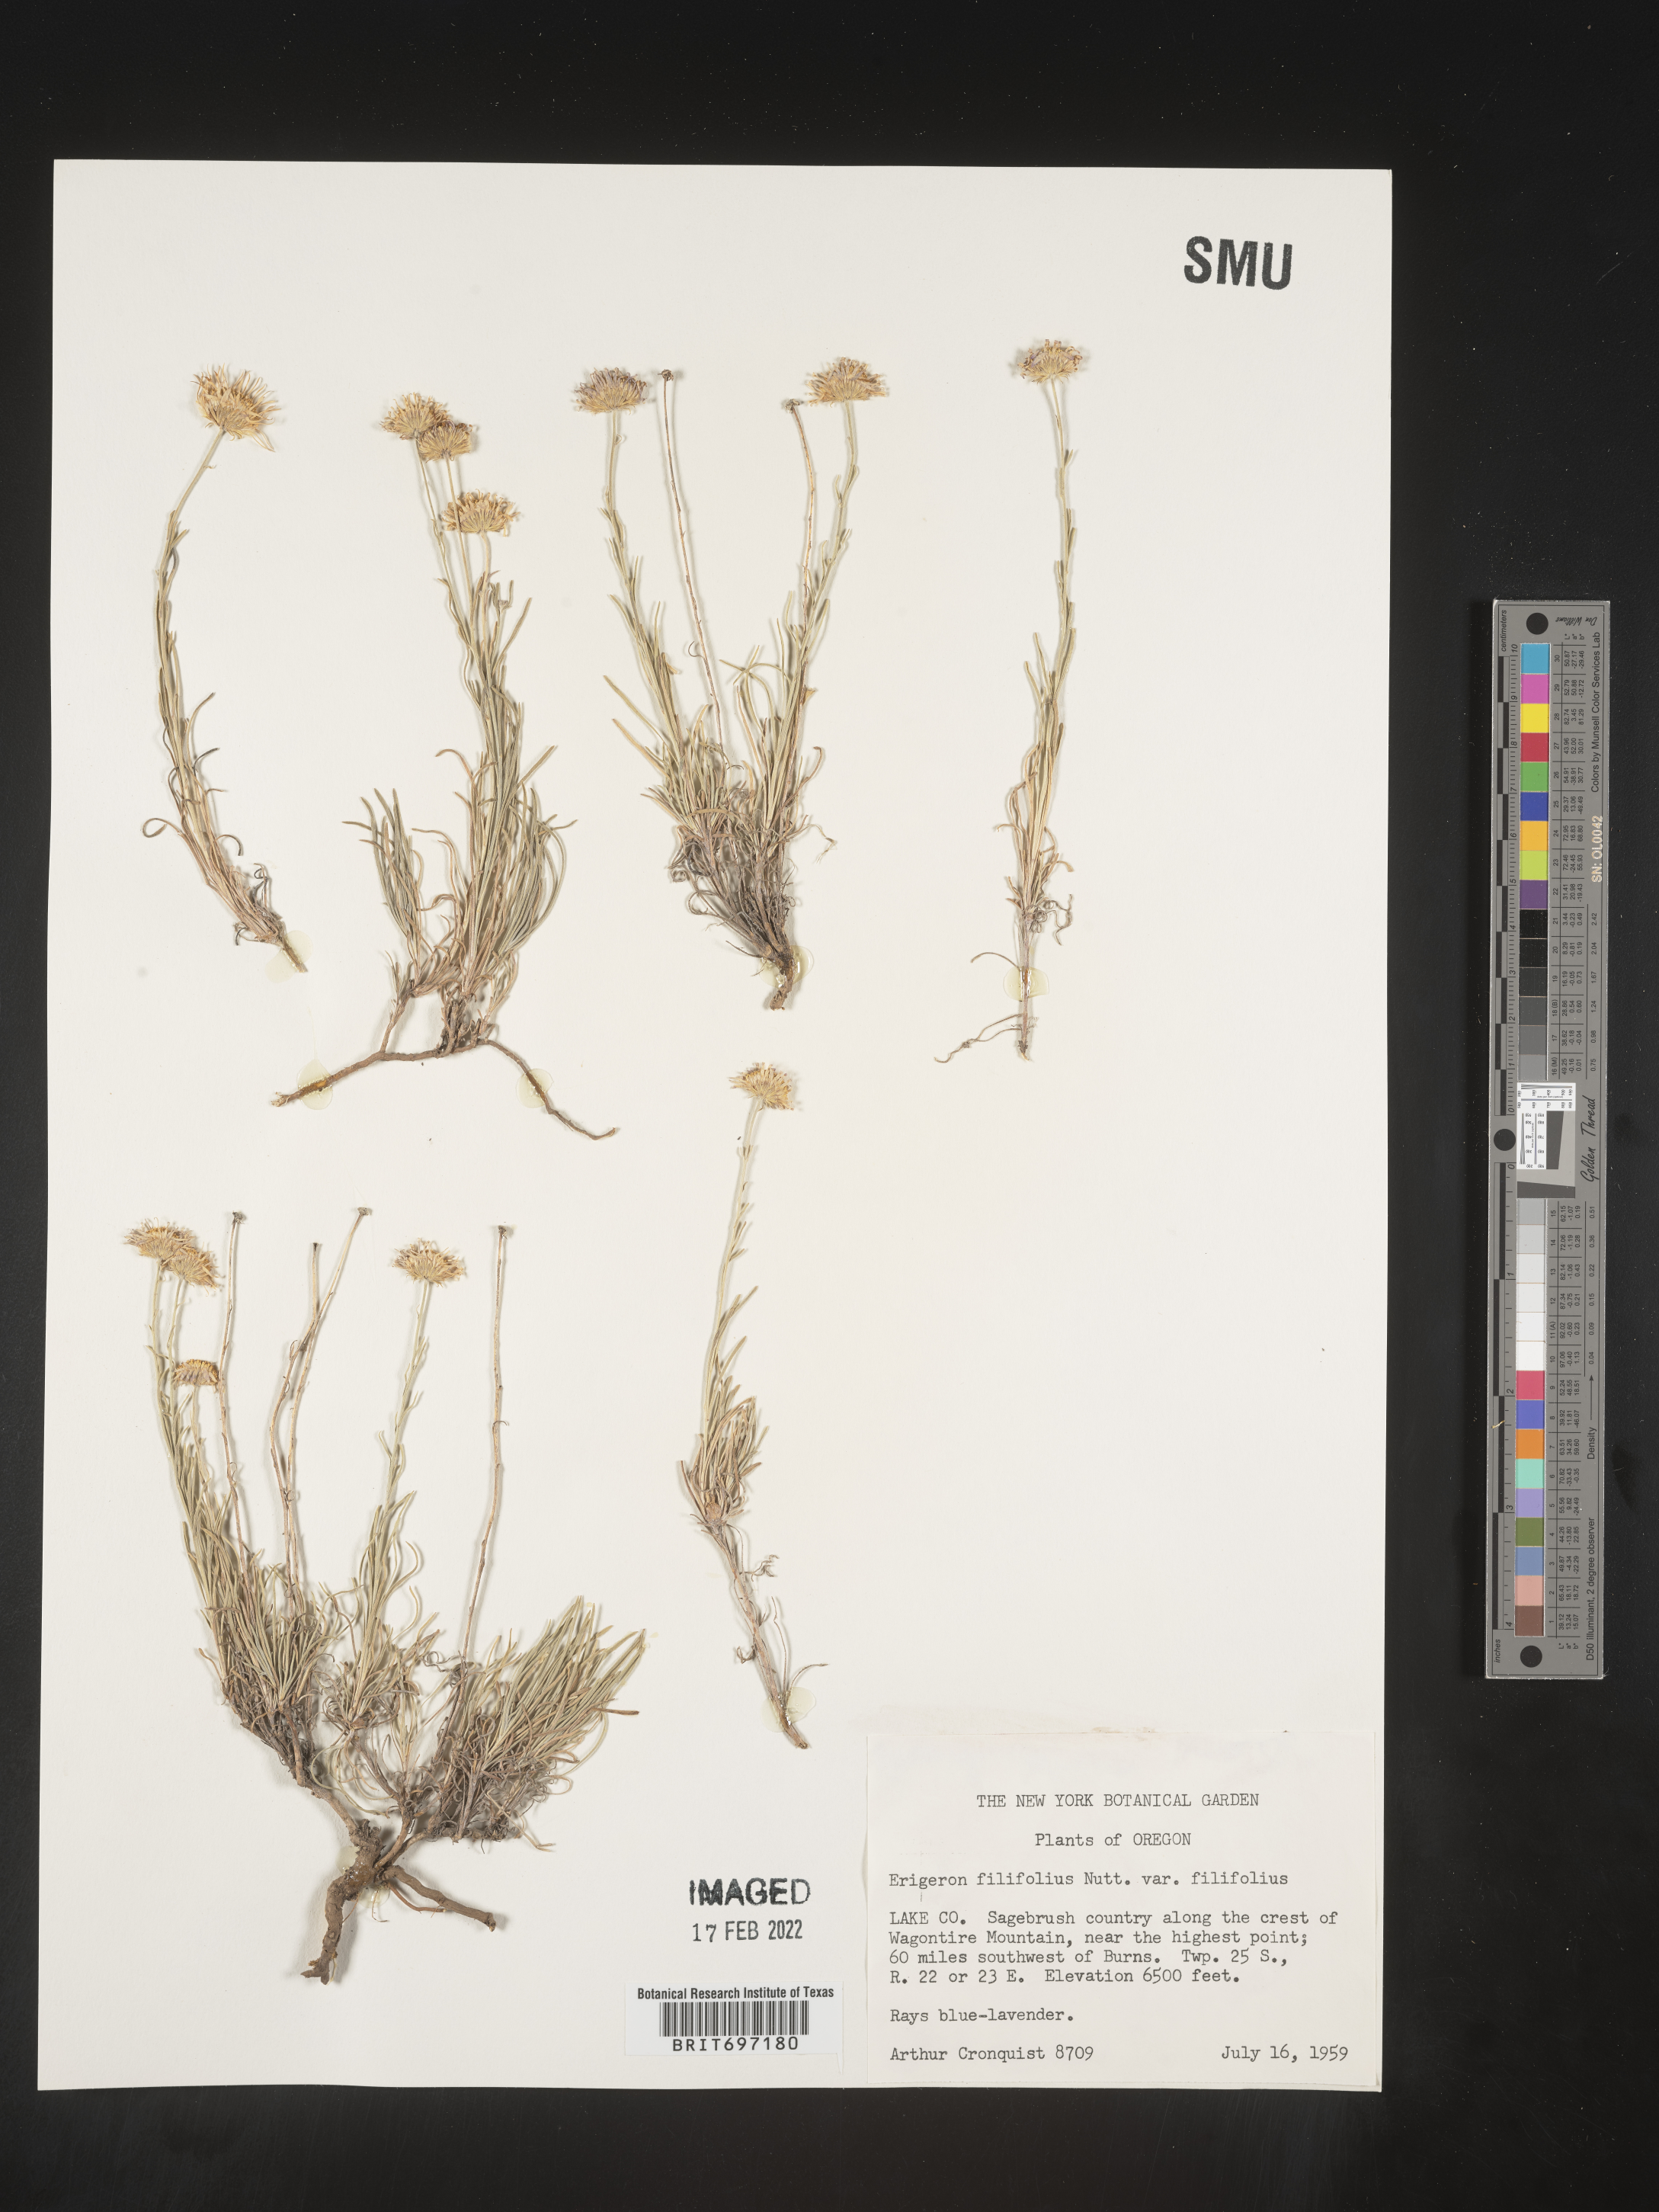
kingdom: Plantae
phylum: Tracheophyta
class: Magnoliopsida
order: Asterales
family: Asteraceae
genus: Erigeron
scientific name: Erigeron filifolius
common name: Threadleaf fleabane
